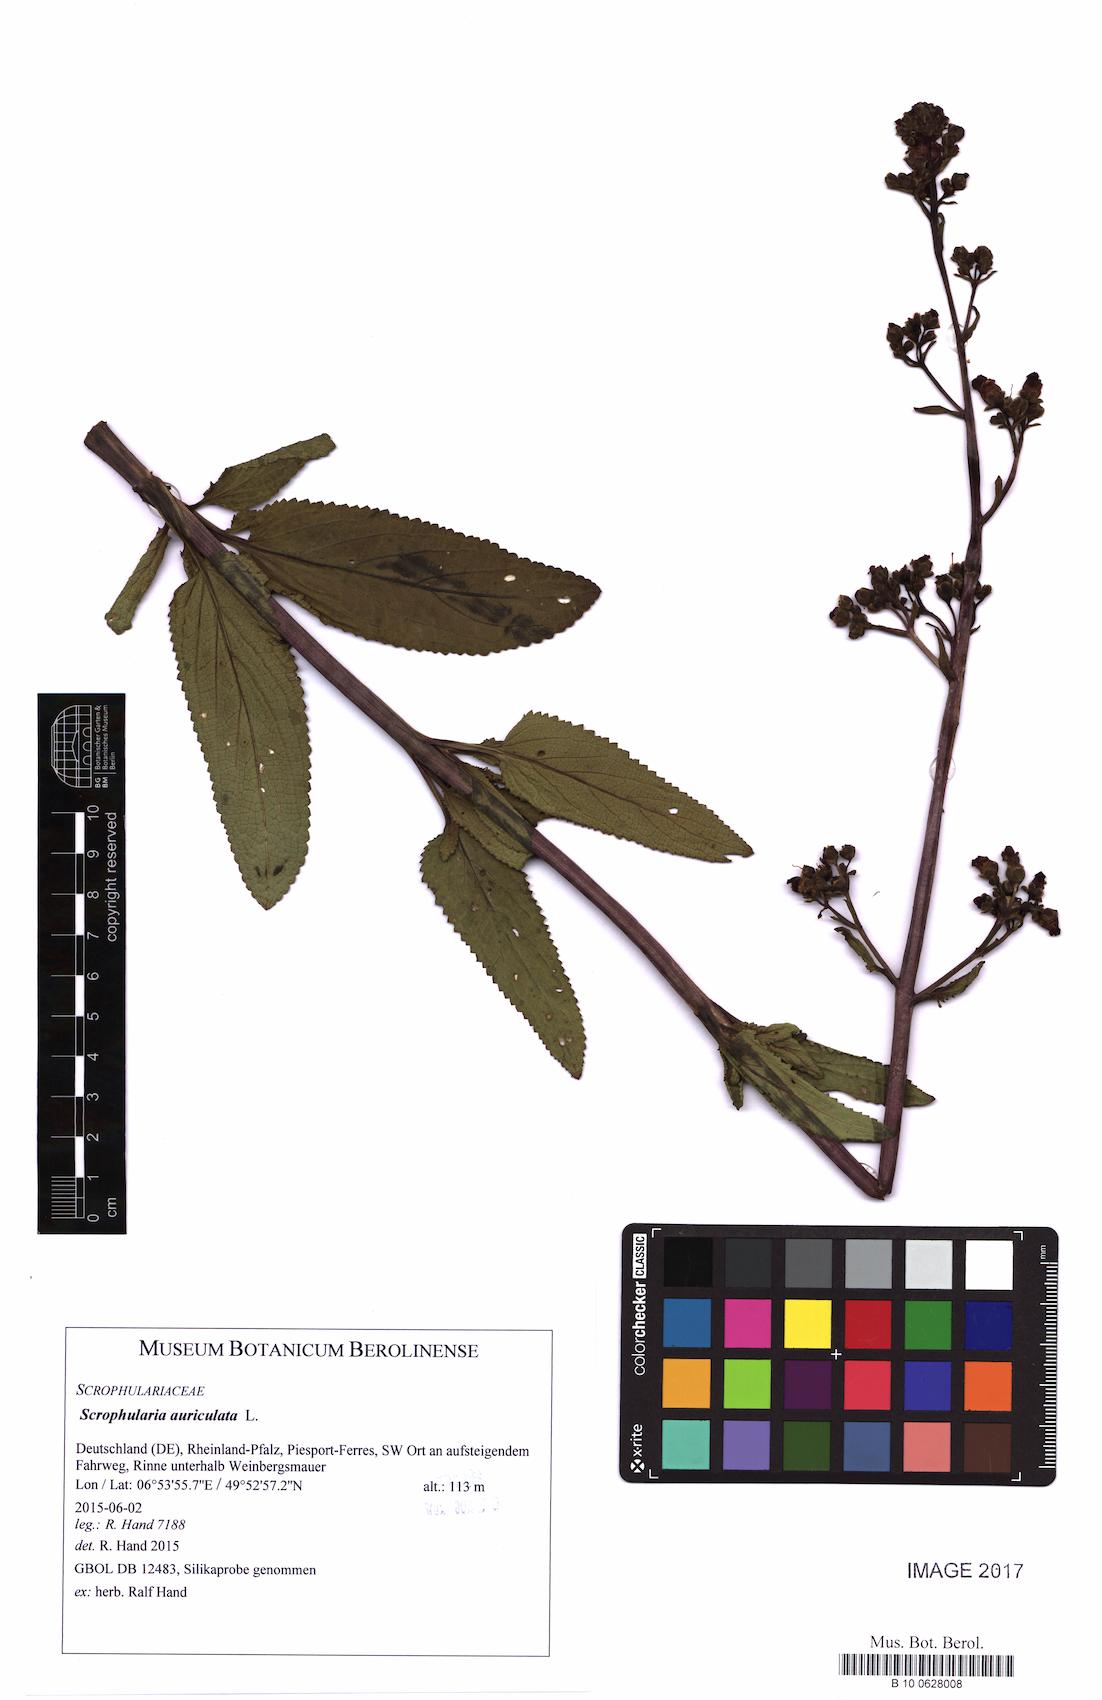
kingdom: Plantae
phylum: Tracheophyta
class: Magnoliopsida
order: Lamiales
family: Scrophulariaceae
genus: Scrophularia
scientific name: Scrophularia auriculata
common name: Water betony
